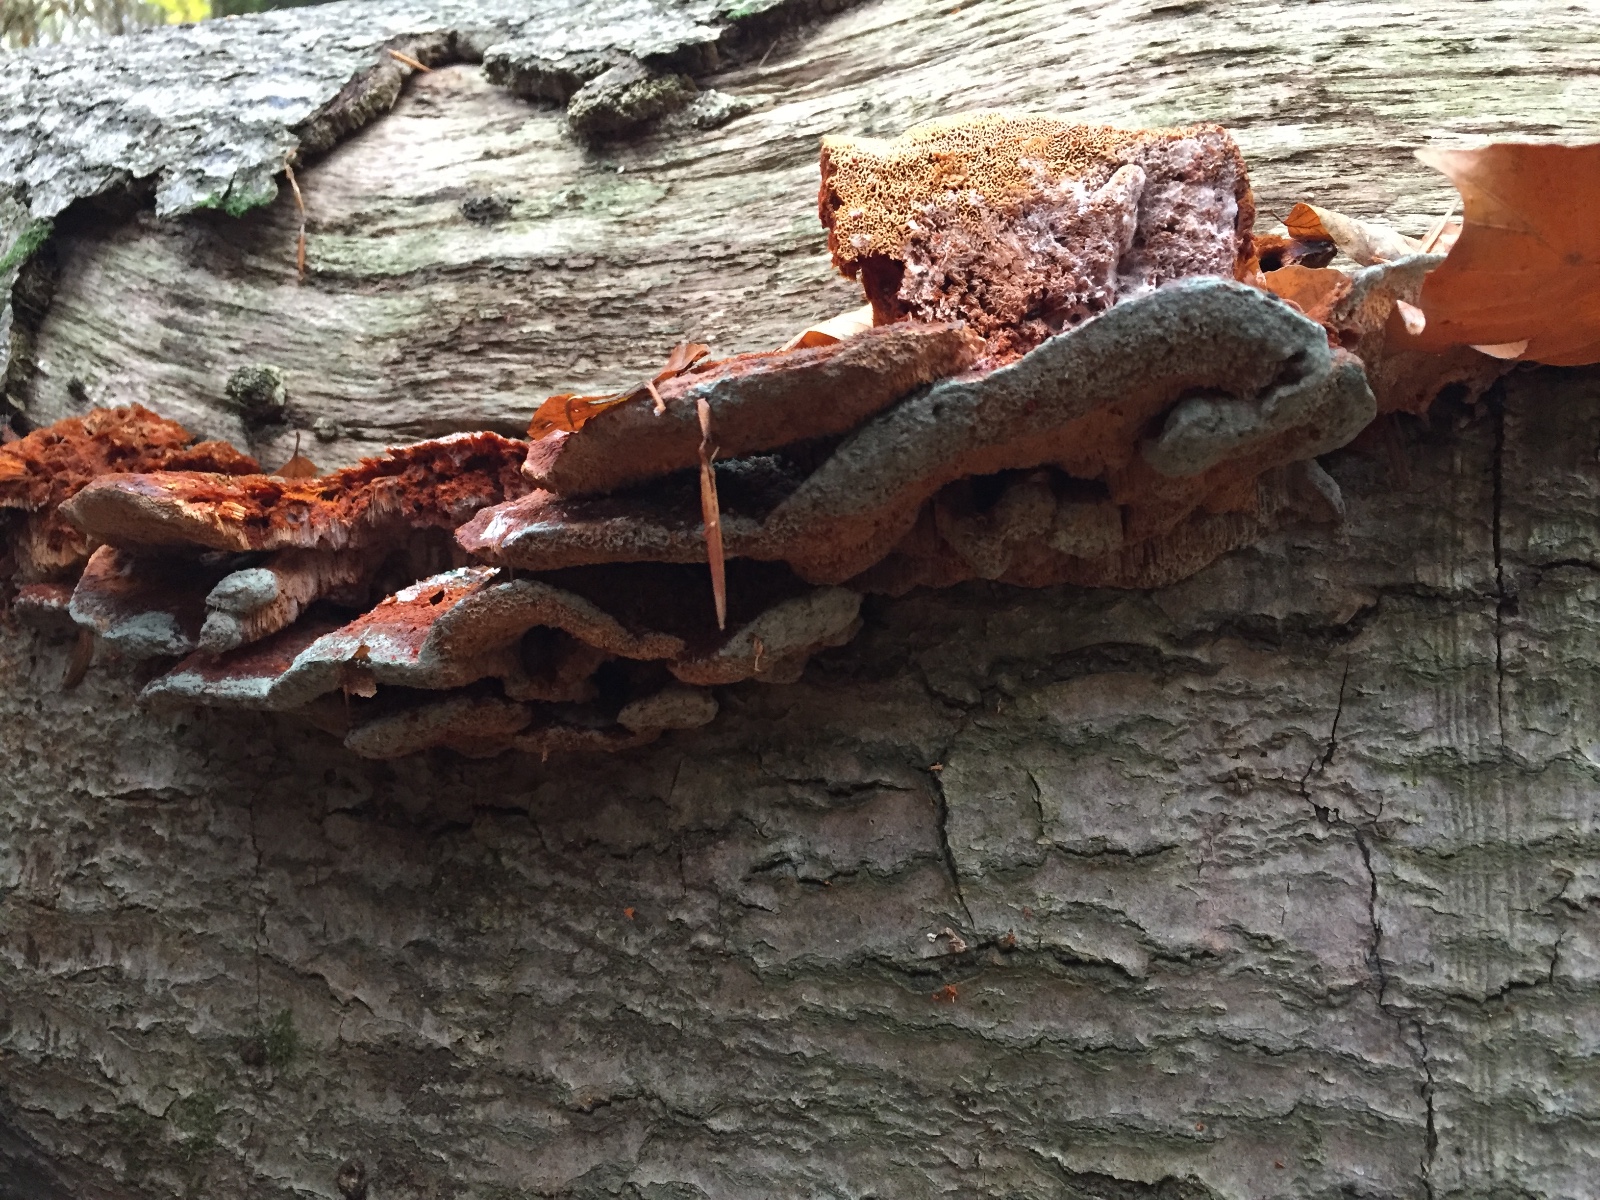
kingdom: Fungi
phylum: Basidiomycota
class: Agaricomycetes
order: Polyporales
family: Pycnoporellaceae
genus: Pycnoporellus
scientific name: Pycnoporellus fulgens
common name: flammeporesvamp
